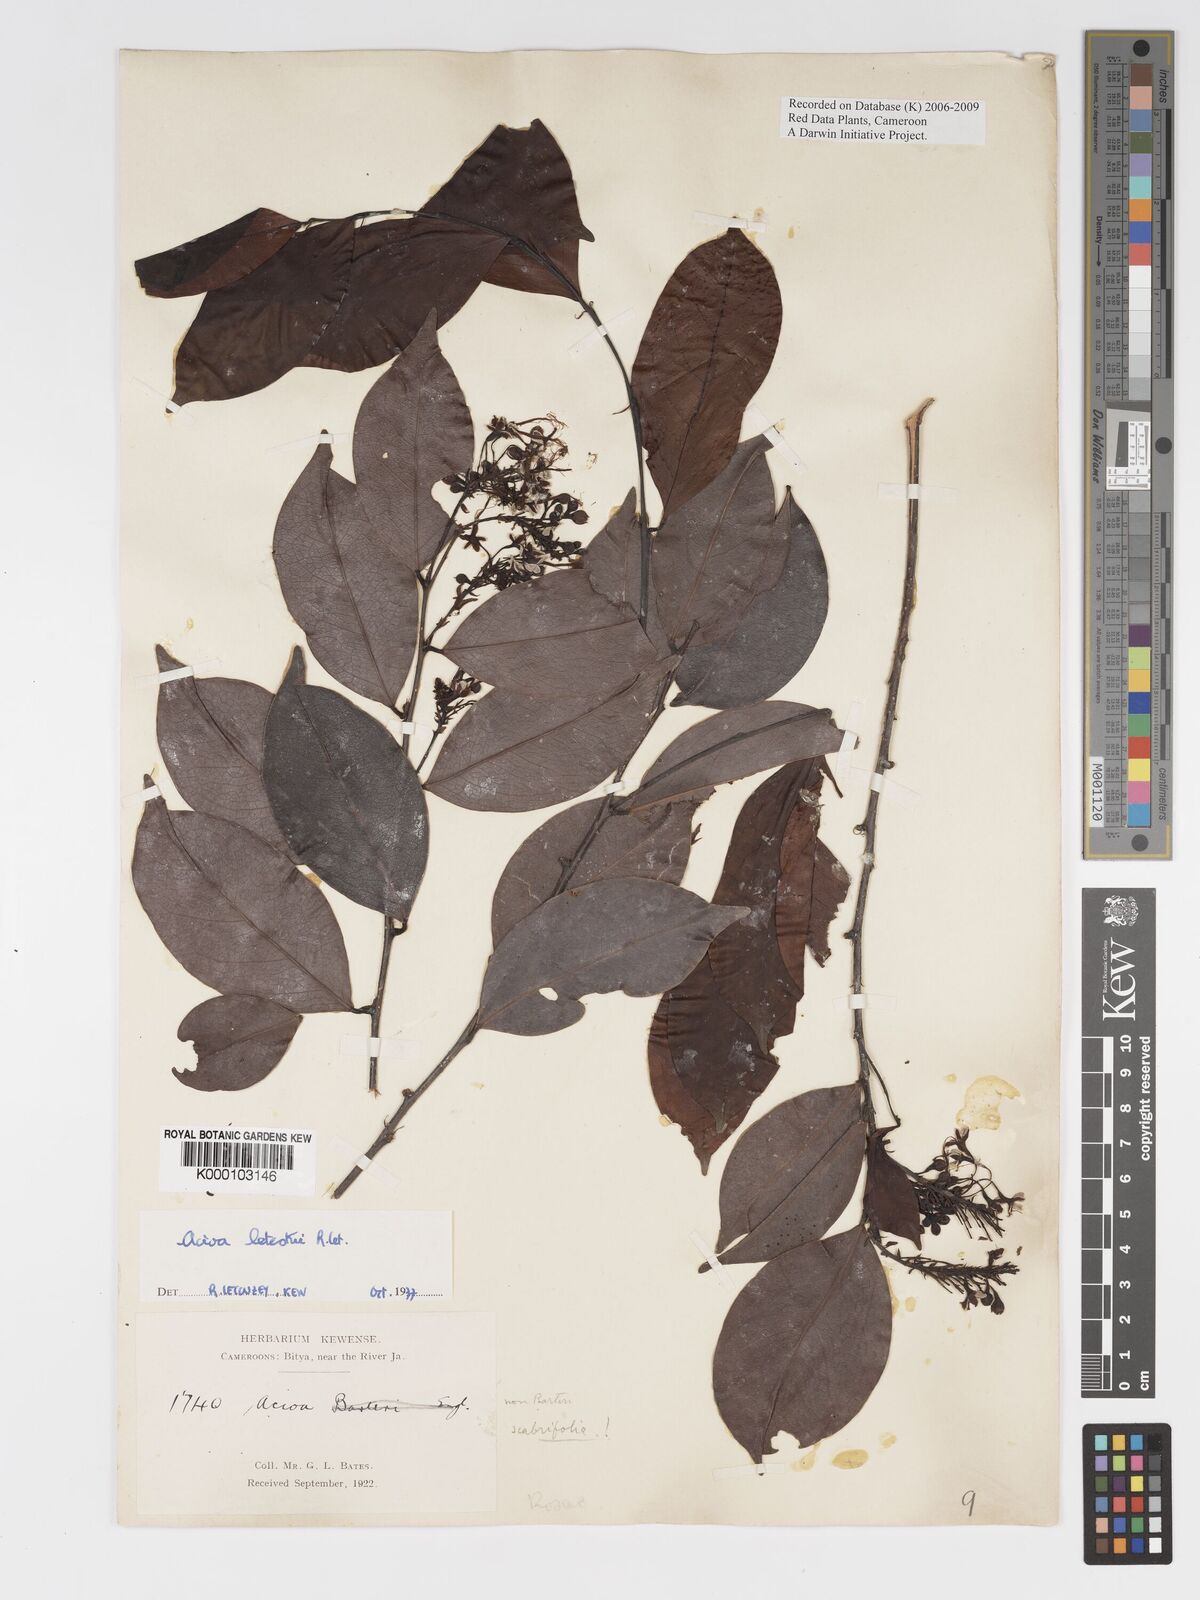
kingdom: Plantae
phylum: Tracheophyta
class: Magnoliopsida
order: Malpighiales
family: Chrysobalanaceae
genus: Dactyladenia
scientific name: Dactyladenia letestui
